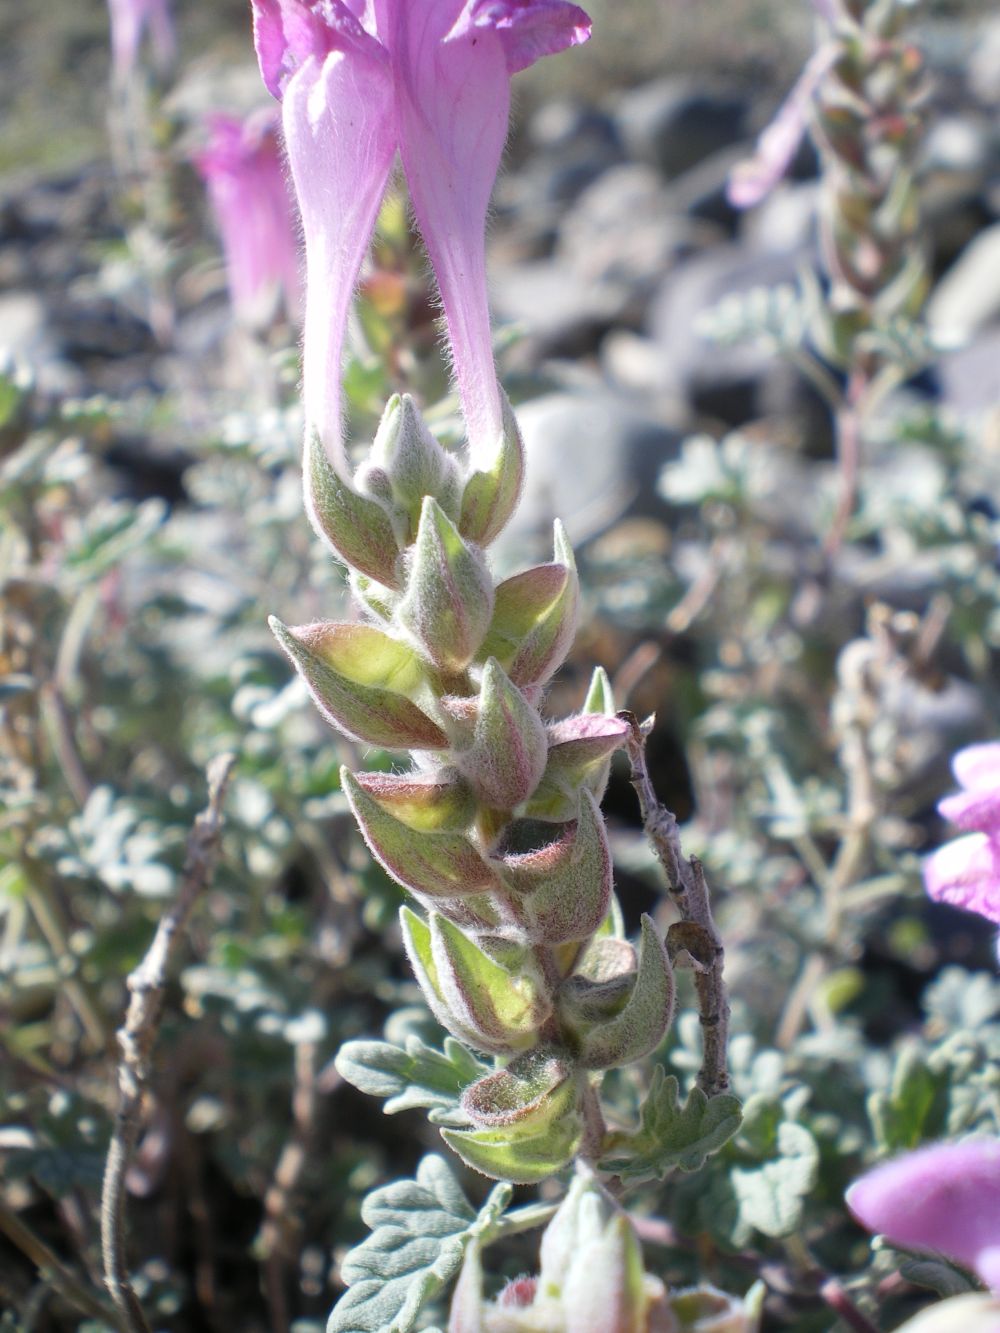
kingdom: Plantae
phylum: Tracheophyta
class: Magnoliopsida
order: Lamiales
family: Lamiaceae
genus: Scutellaria
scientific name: Scutellaria grandiflora
